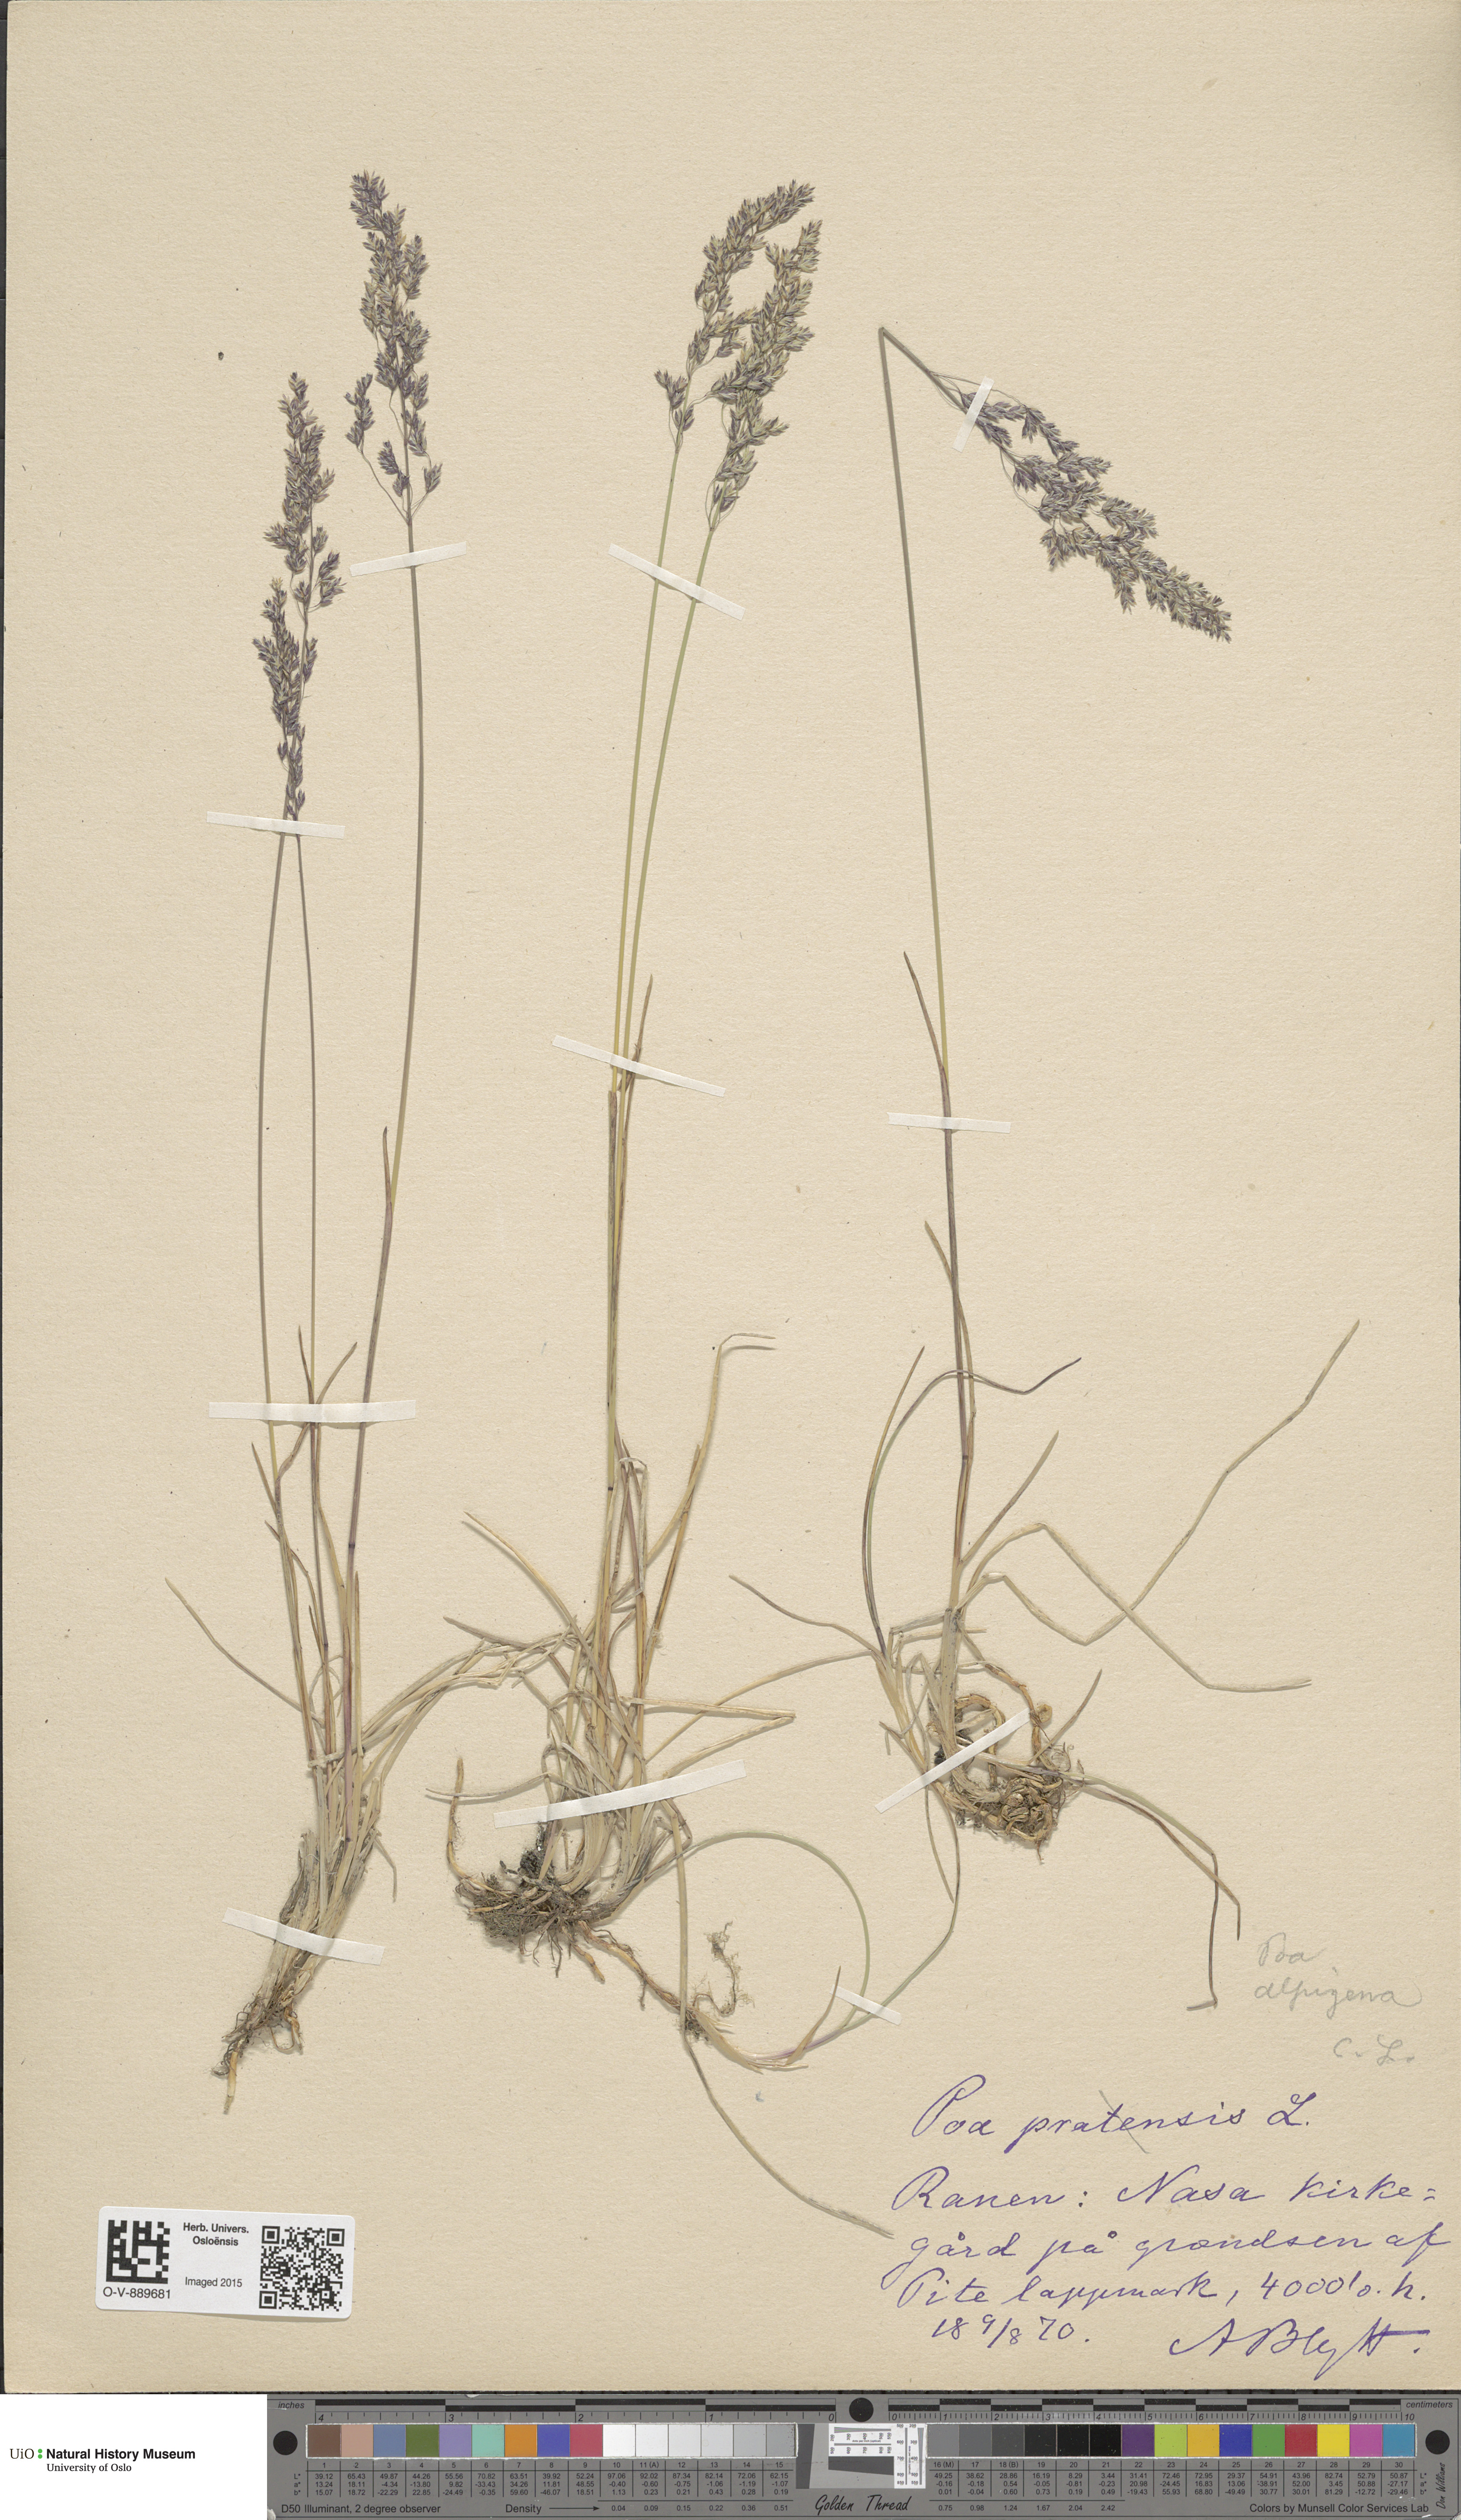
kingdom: Plantae
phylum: Tracheophyta
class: Liliopsida
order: Poales
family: Poaceae
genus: Poa
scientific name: Poa alpigena
